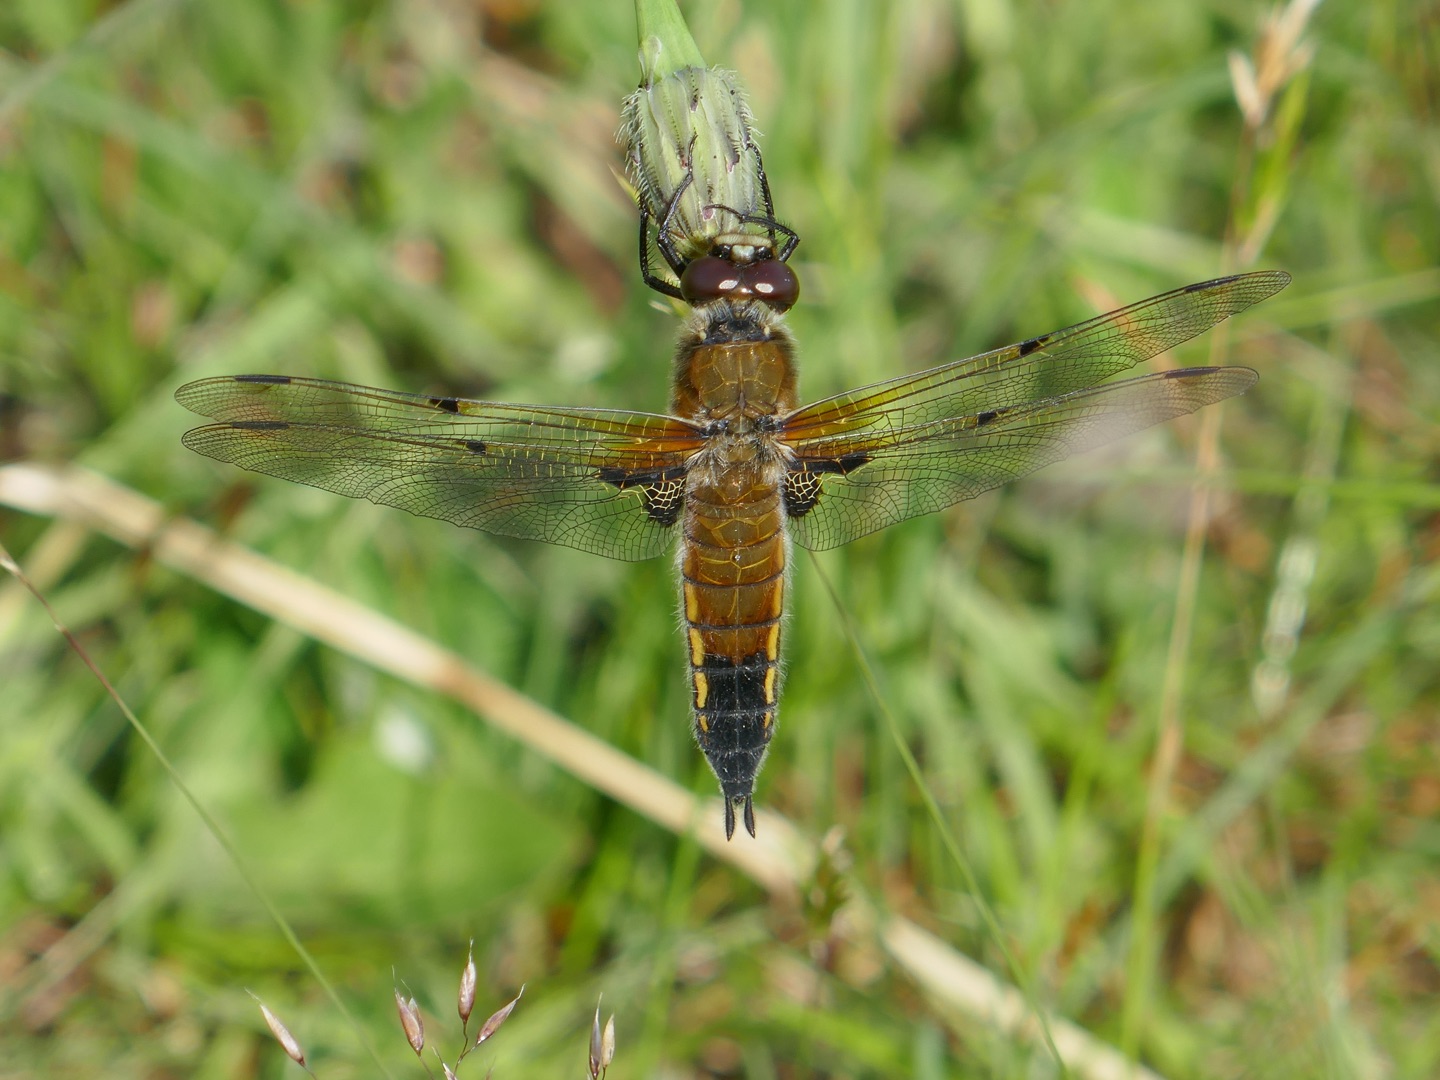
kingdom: Animalia
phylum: Arthropoda
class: Insecta
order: Odonata
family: Libellulidae
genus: Libellula
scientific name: Libellula quadrimaculata
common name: Fireplettet libel
